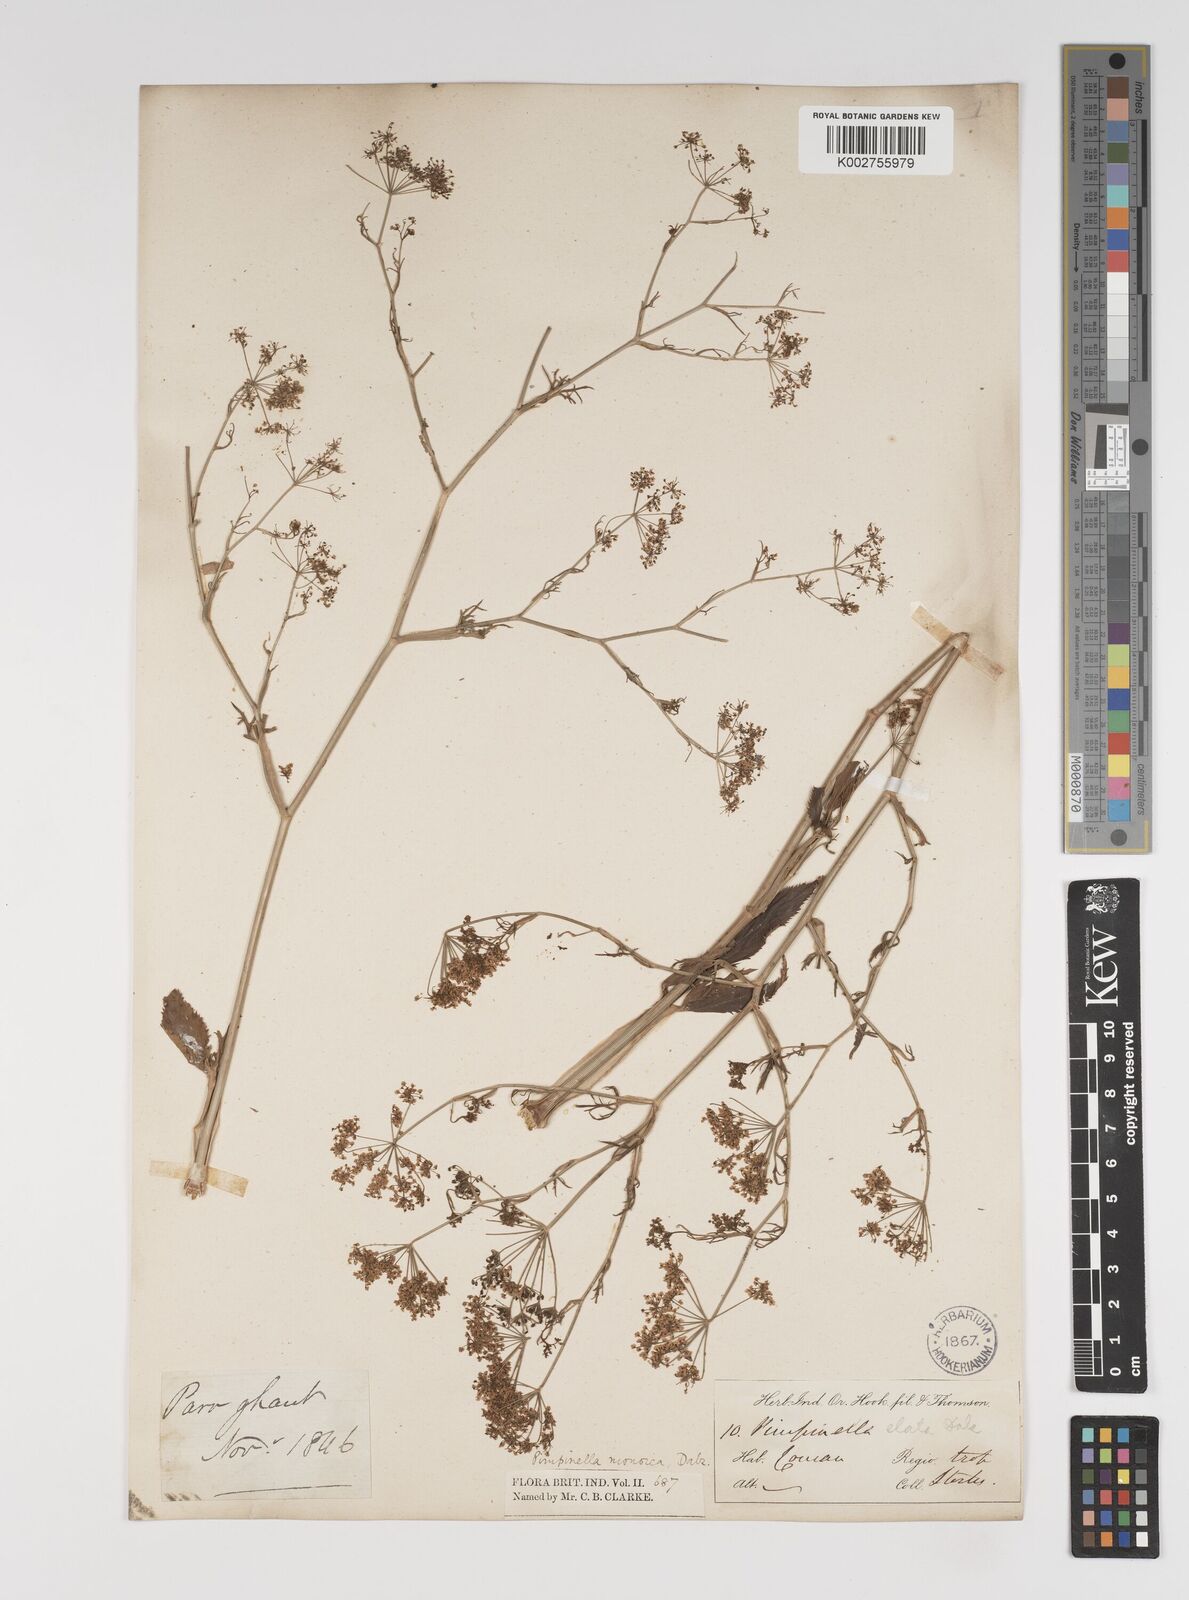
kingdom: Plantae
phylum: Tracheophyta
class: Magnoliopsida
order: Apiales
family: Apiaceae
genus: Pimpinella
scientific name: Pimpinella wallichiana
